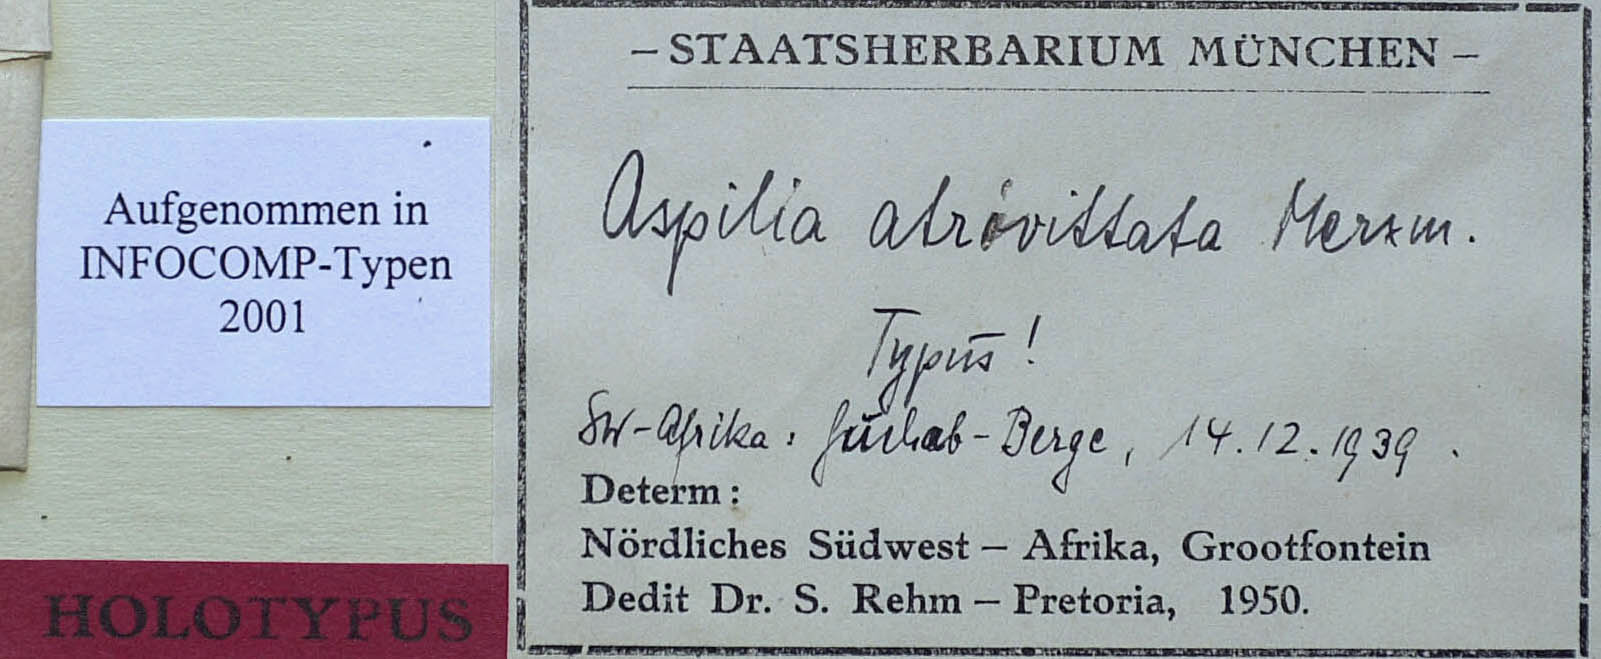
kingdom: Plantae
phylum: Tracheophyta
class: Magnoliopsida
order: Asterales
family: Asteraceae
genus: Aspilia
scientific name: Aspilia eenii
